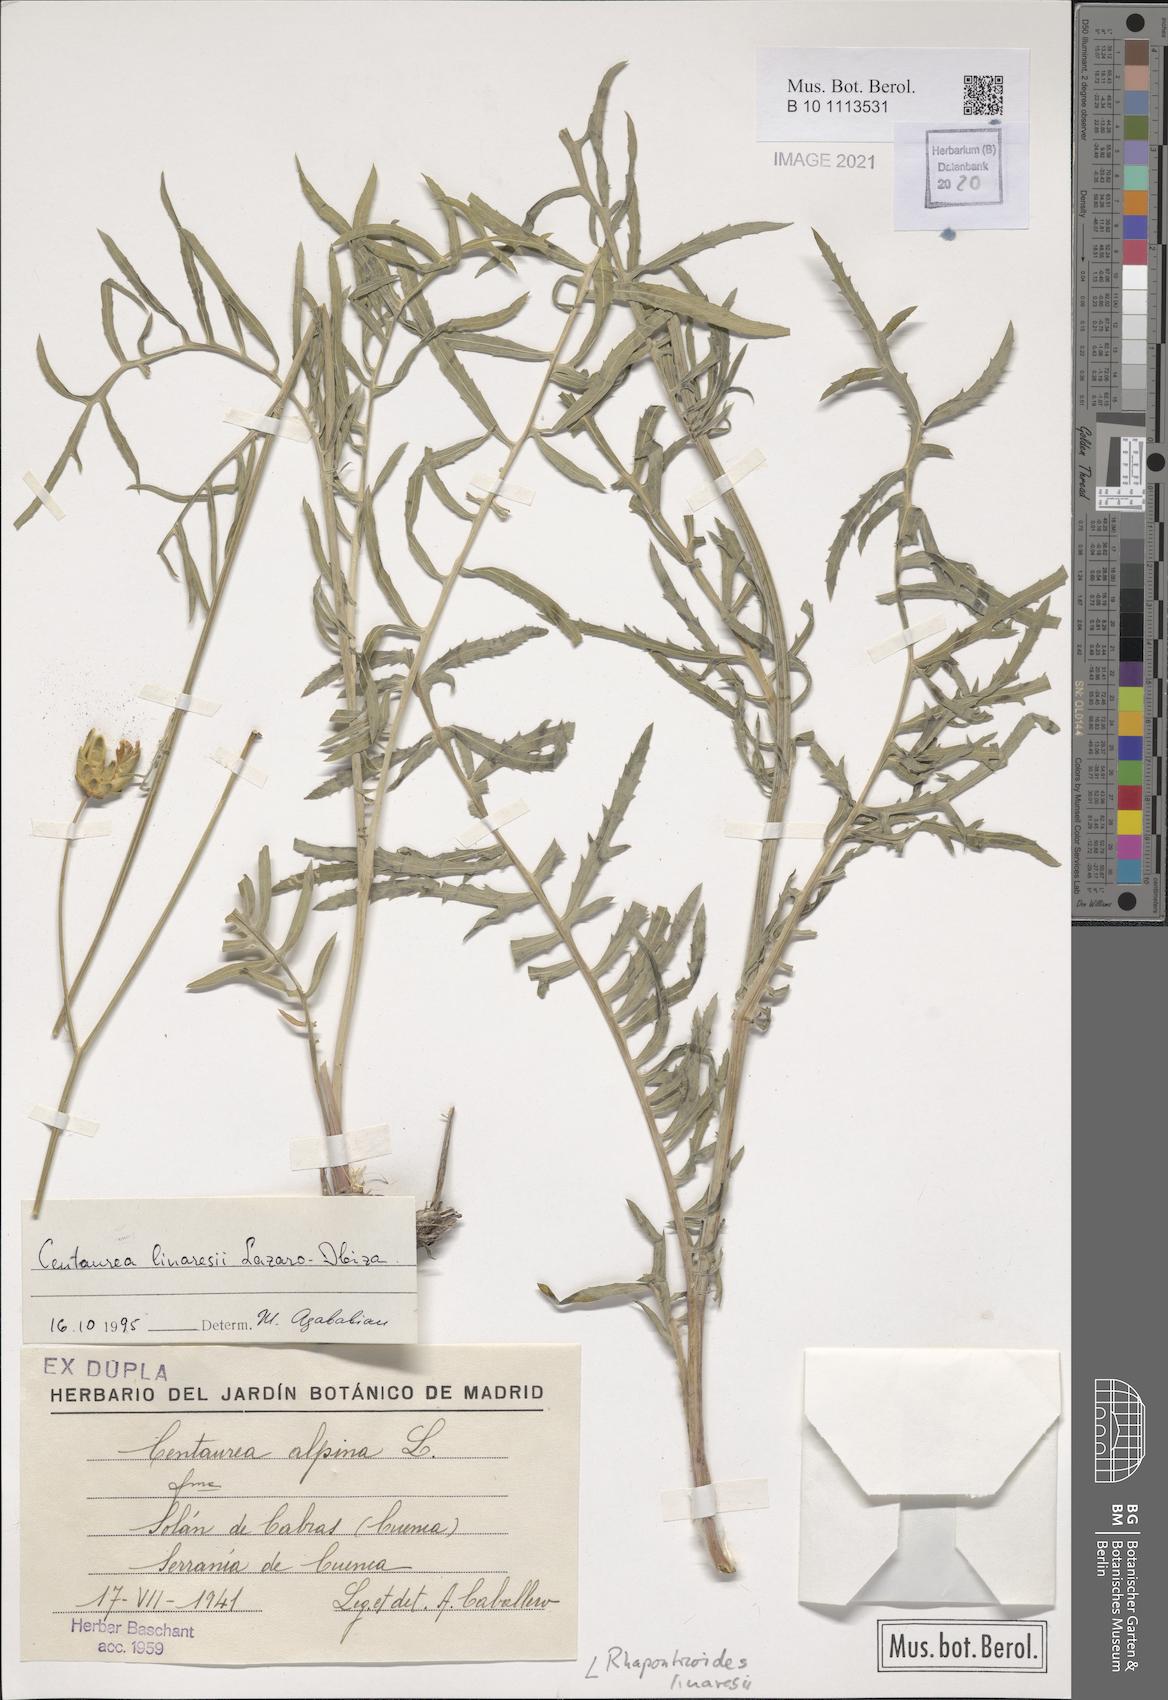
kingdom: Plantae
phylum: Tracheophyta
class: Magnoliopsida
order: Asterales
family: Asteraceae
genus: Rhaponticoides
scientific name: Rhaponticoides alpina
